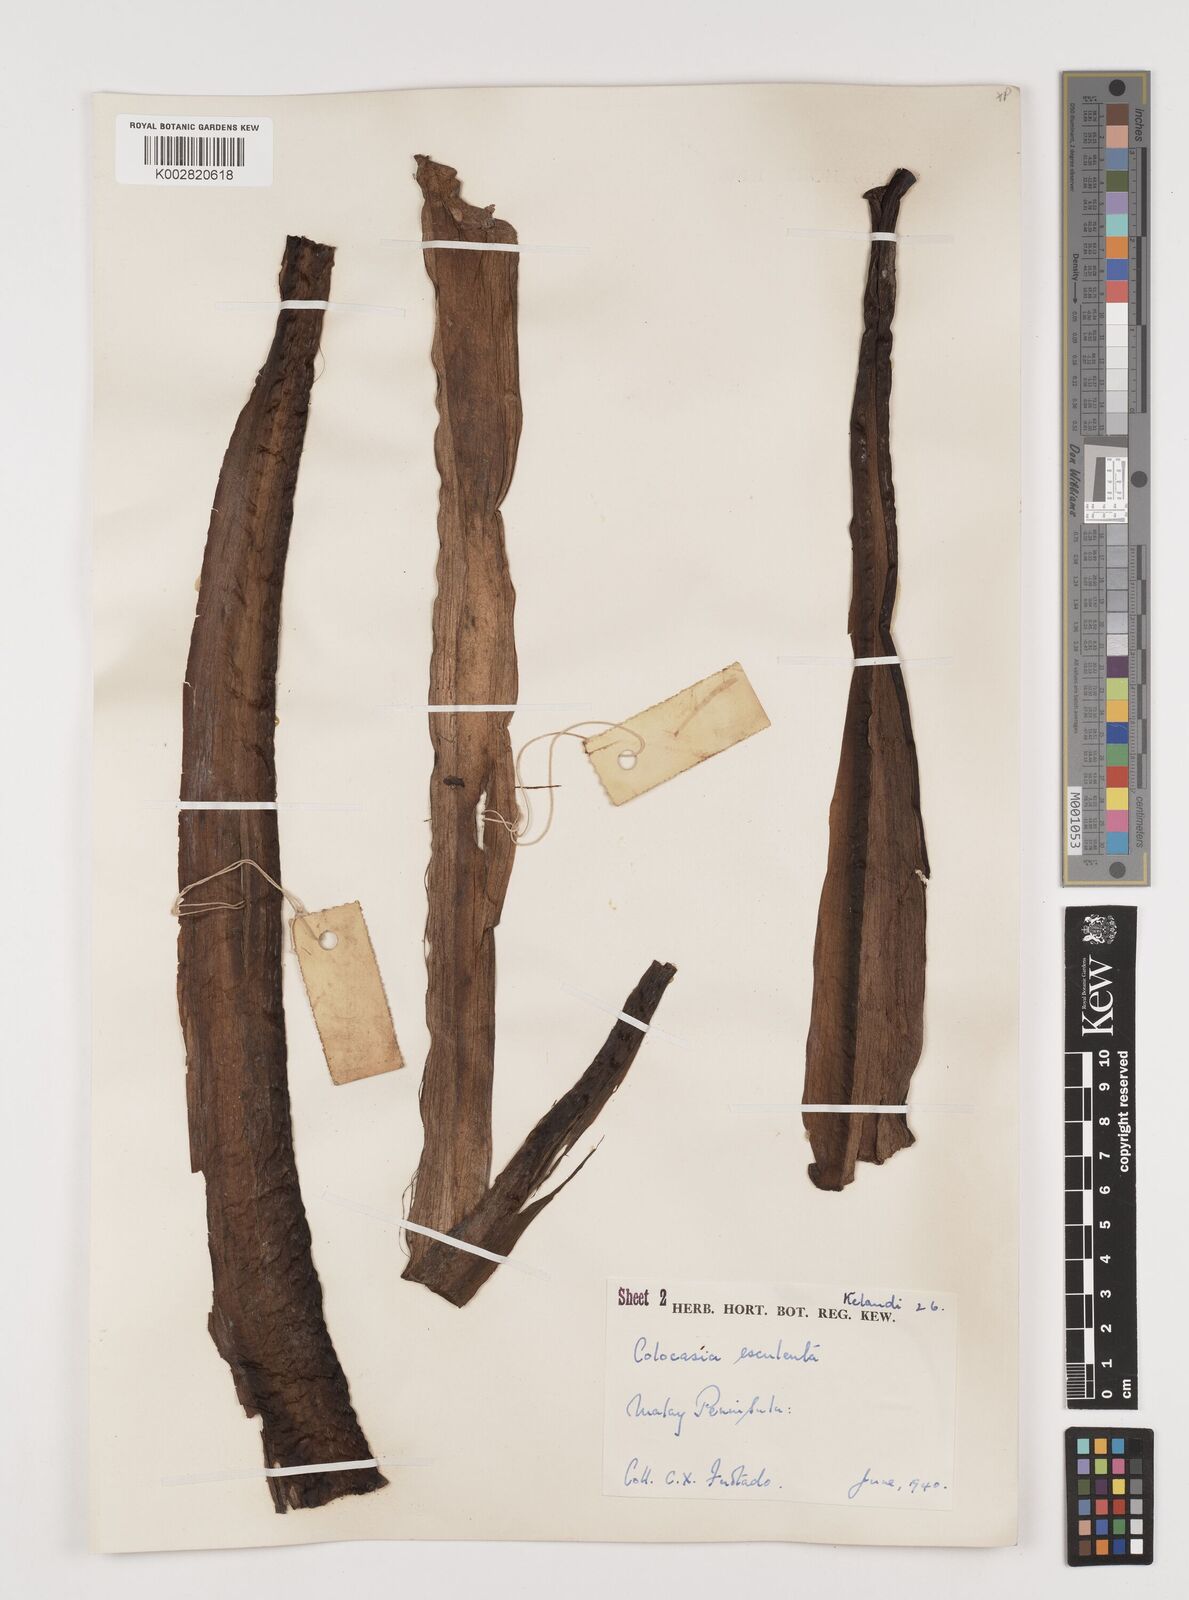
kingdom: Plantae
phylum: Tracheophyta
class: Liliopsida
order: Alismatales
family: Araceae
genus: Colocasia
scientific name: Colocasia esculenta
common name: Taro
